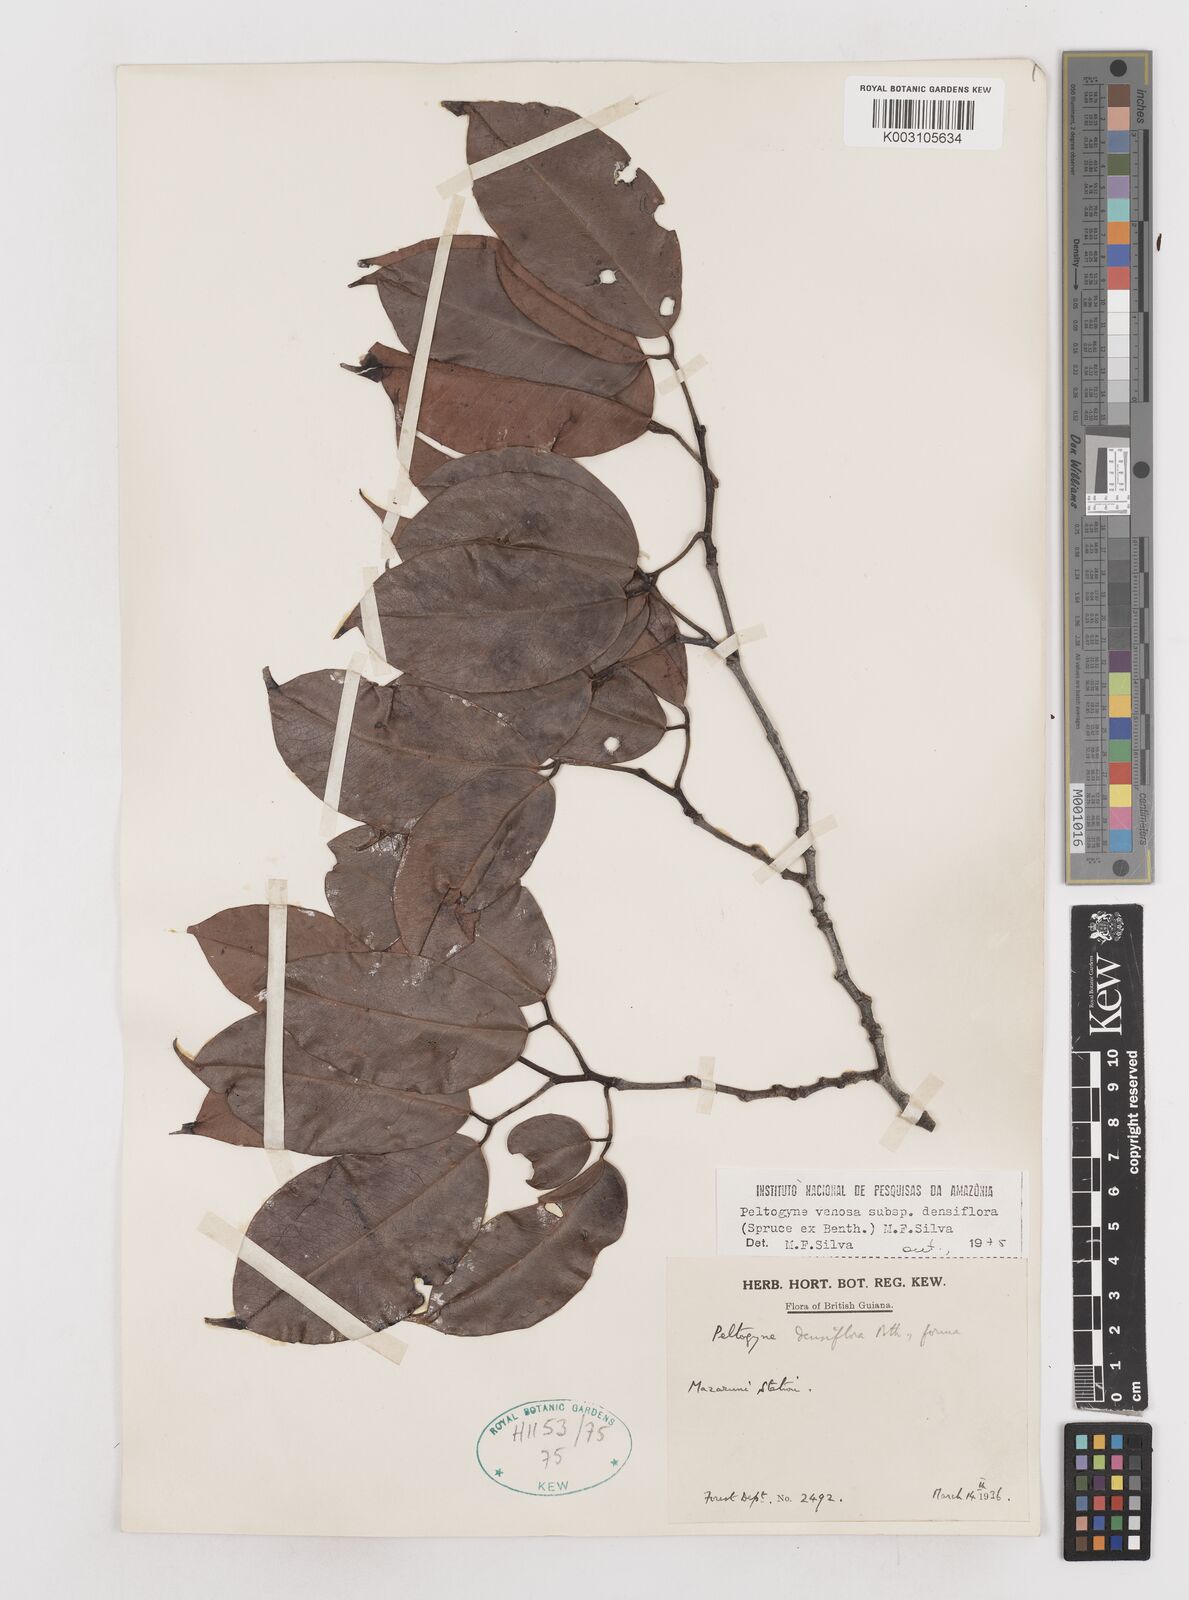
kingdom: Plantae
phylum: Tracheophyta
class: Magnoliopsida
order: Fabales
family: Fabaceae
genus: Peltogyne
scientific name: Peltogyne venosa
